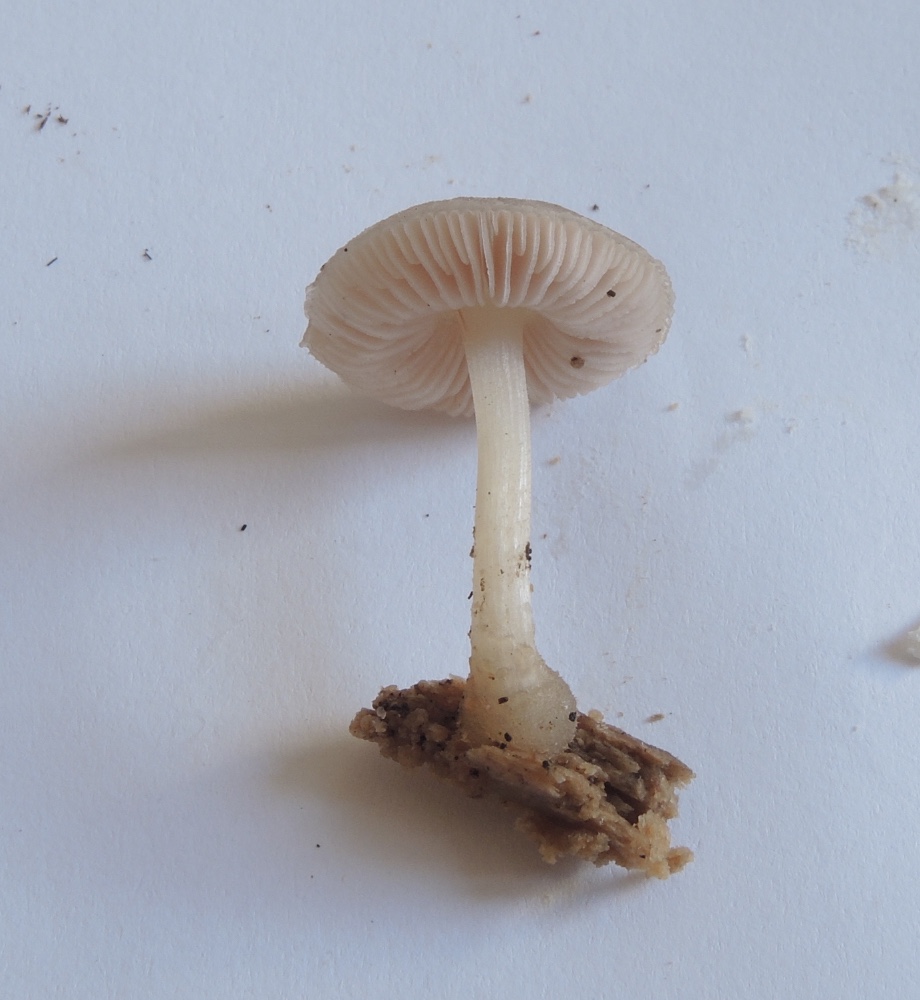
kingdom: Fungi
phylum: Basidiomycota
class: Agaricomycetes
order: Agaricales
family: Pluteaceae
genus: Pluteus
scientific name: Pluteus semibulbosus
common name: knoldet skærmhat
